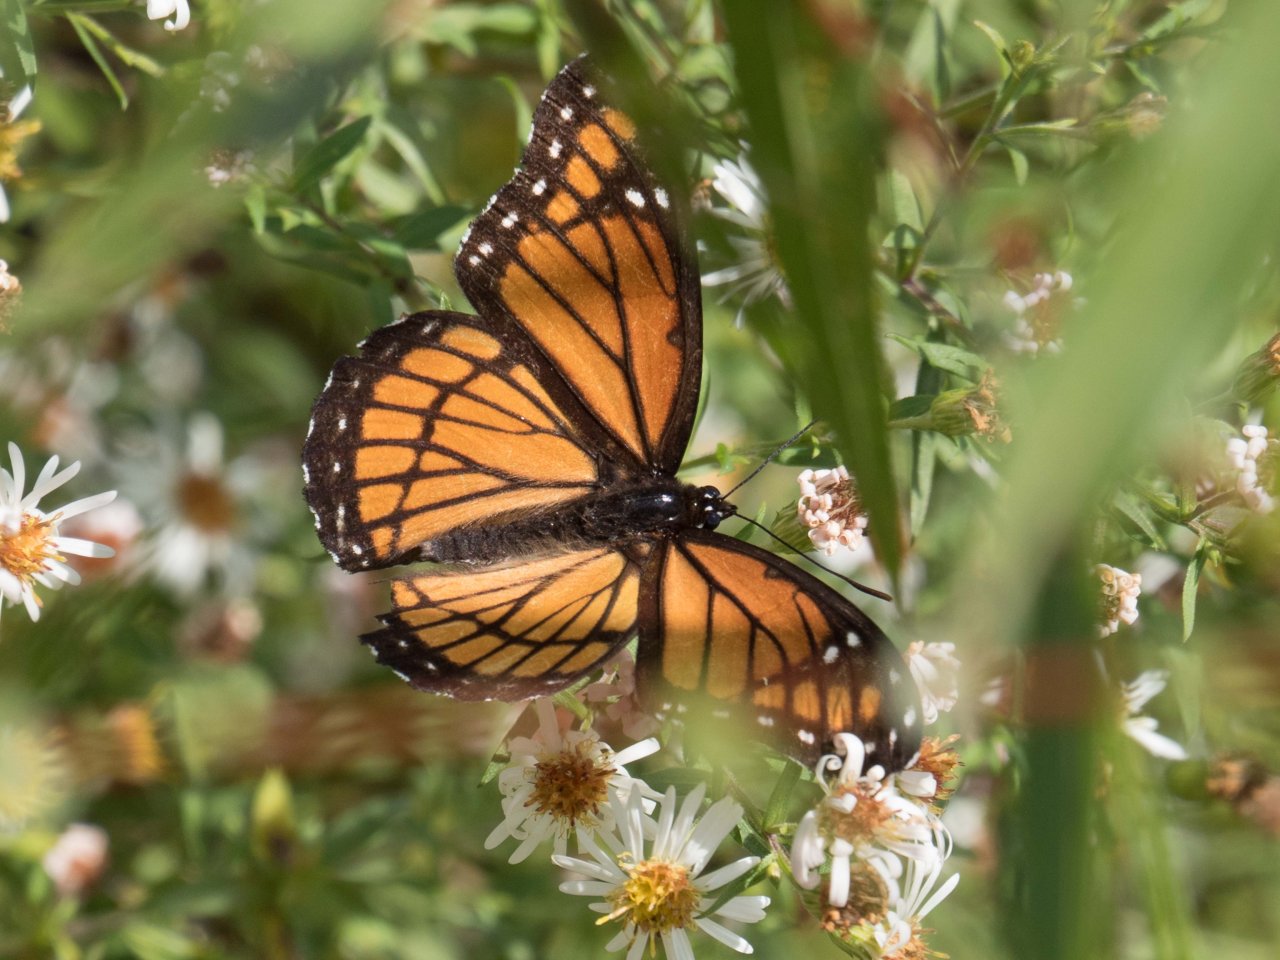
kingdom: Animalia
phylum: Arthropoda
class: Insecta
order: Lepidoptera
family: Nymphalidae
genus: Limenitis
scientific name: Limenitis archippus
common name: Viceroy
